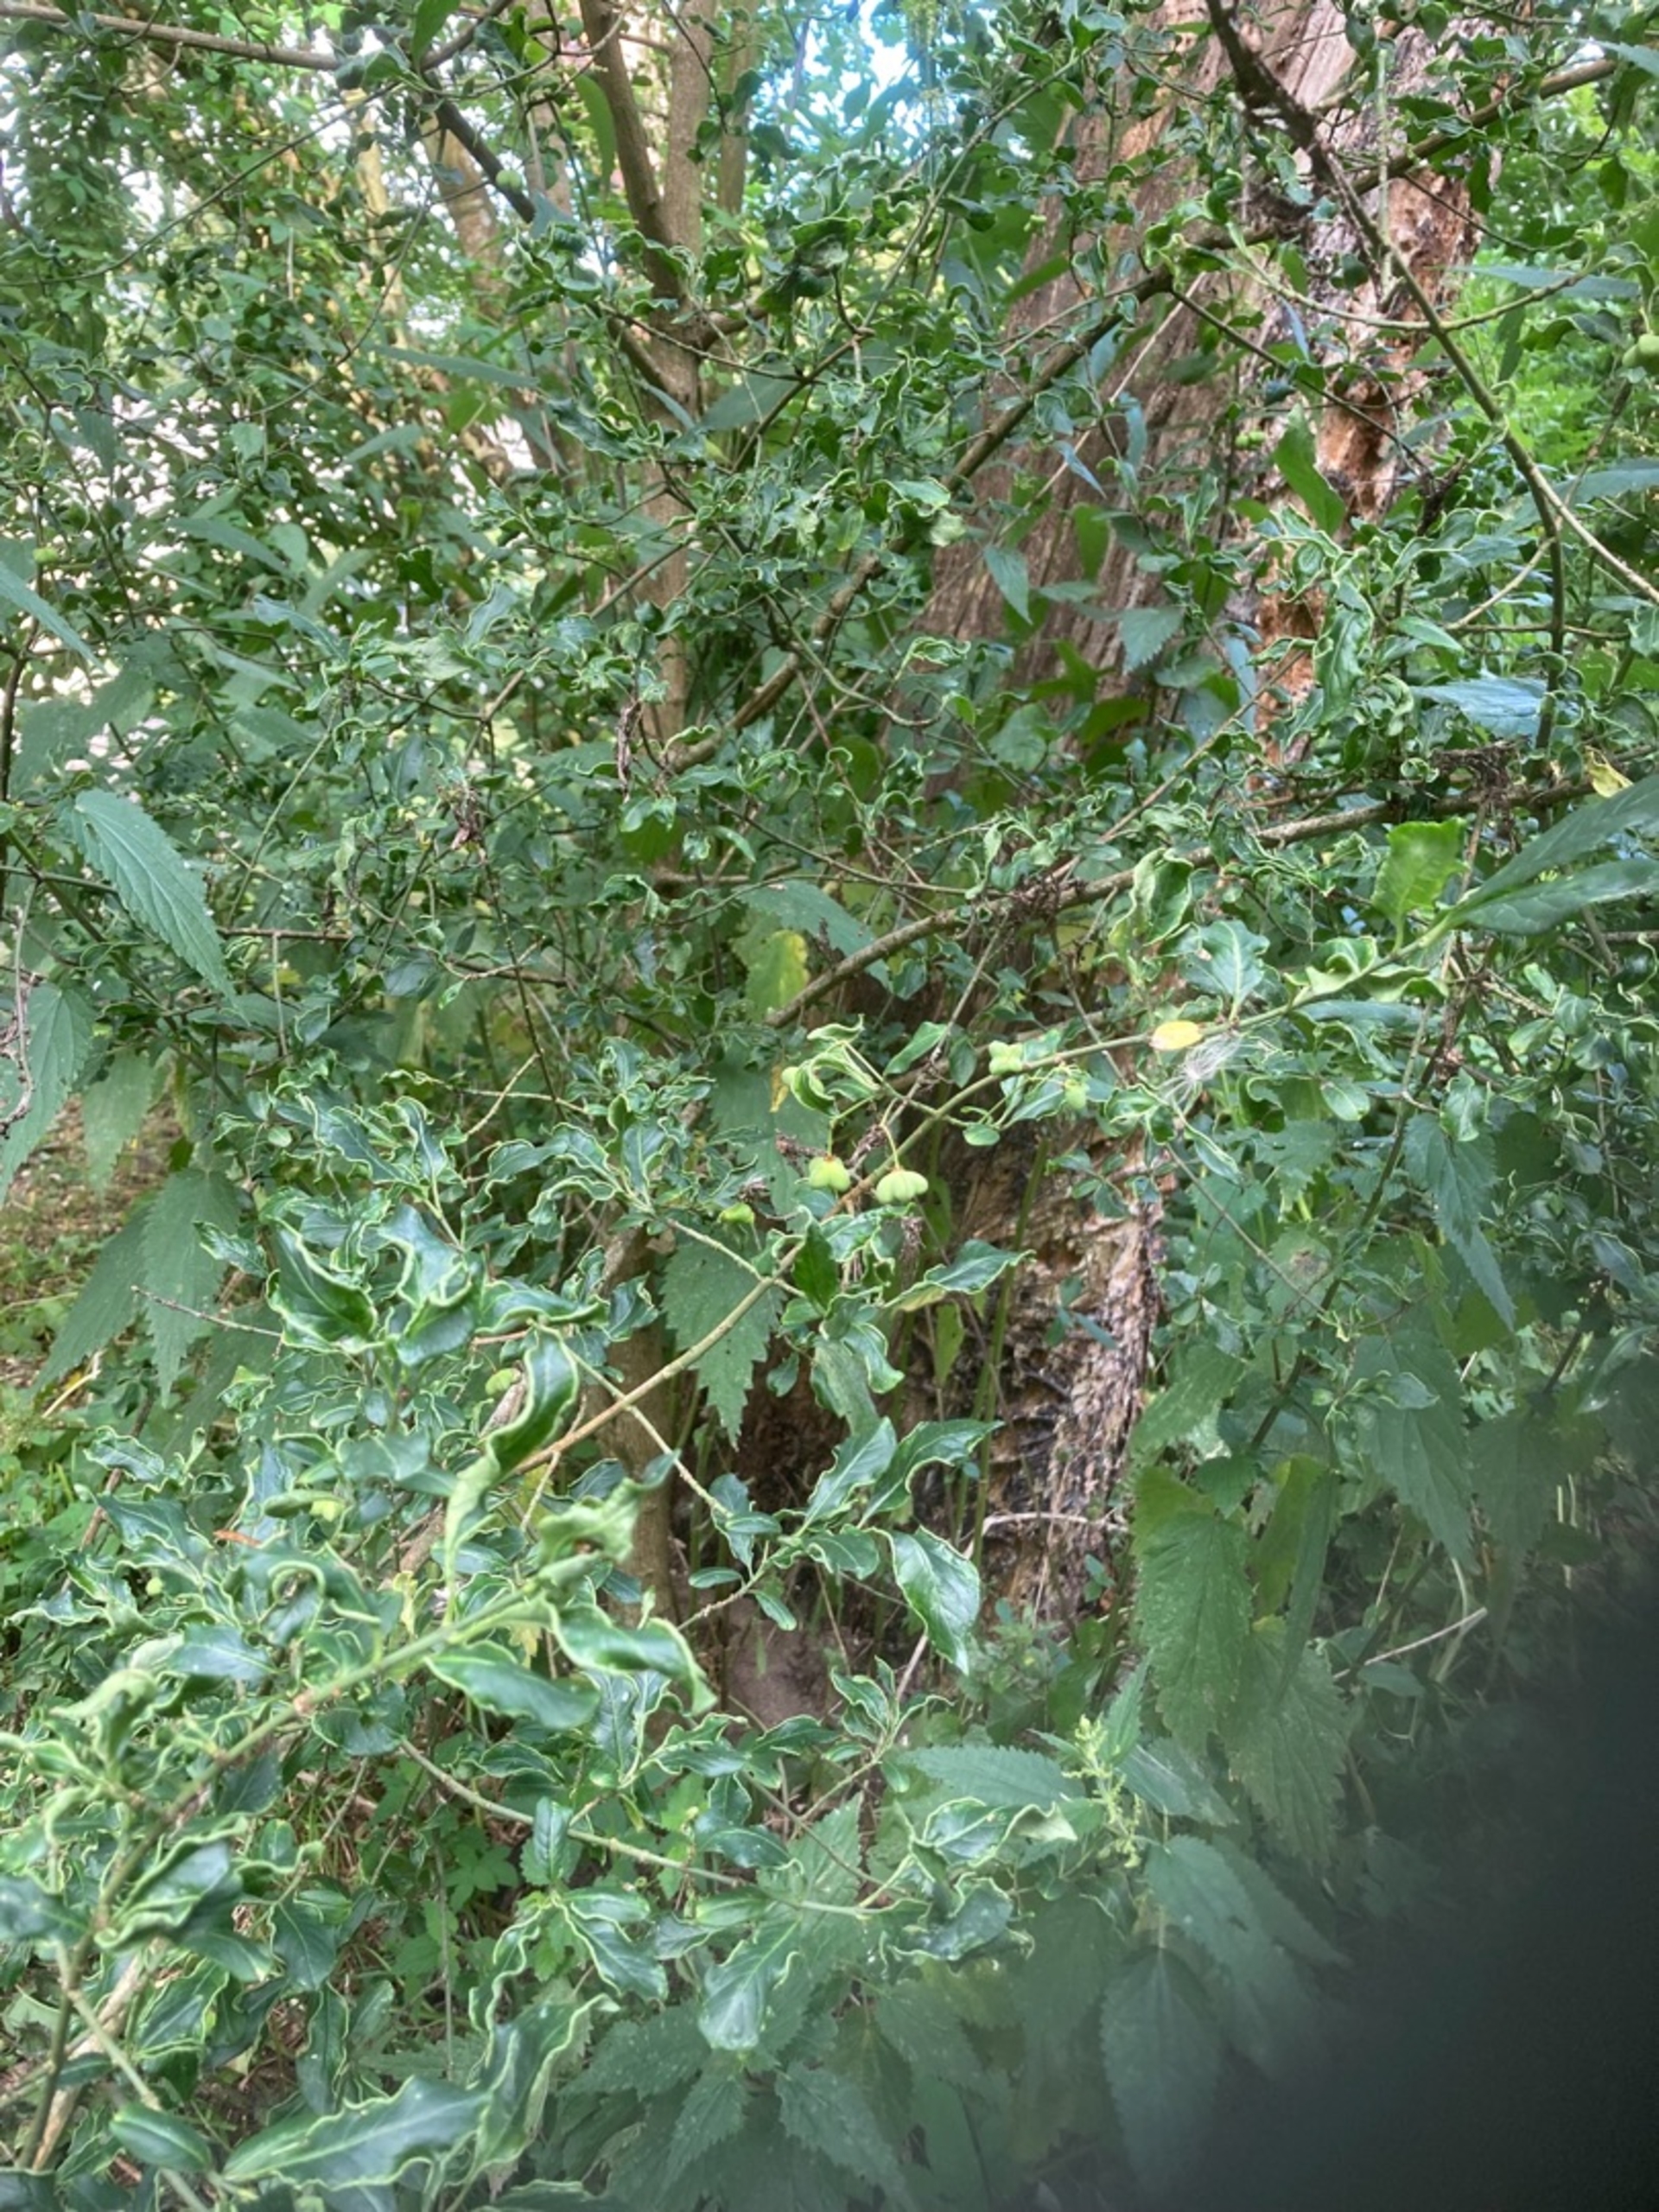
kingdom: Plantae
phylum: Tracheophyta
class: Magnoliopsida
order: Celastrales
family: Celastraceae
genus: Euonymus
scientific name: Euonymus europaeus
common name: Benved
